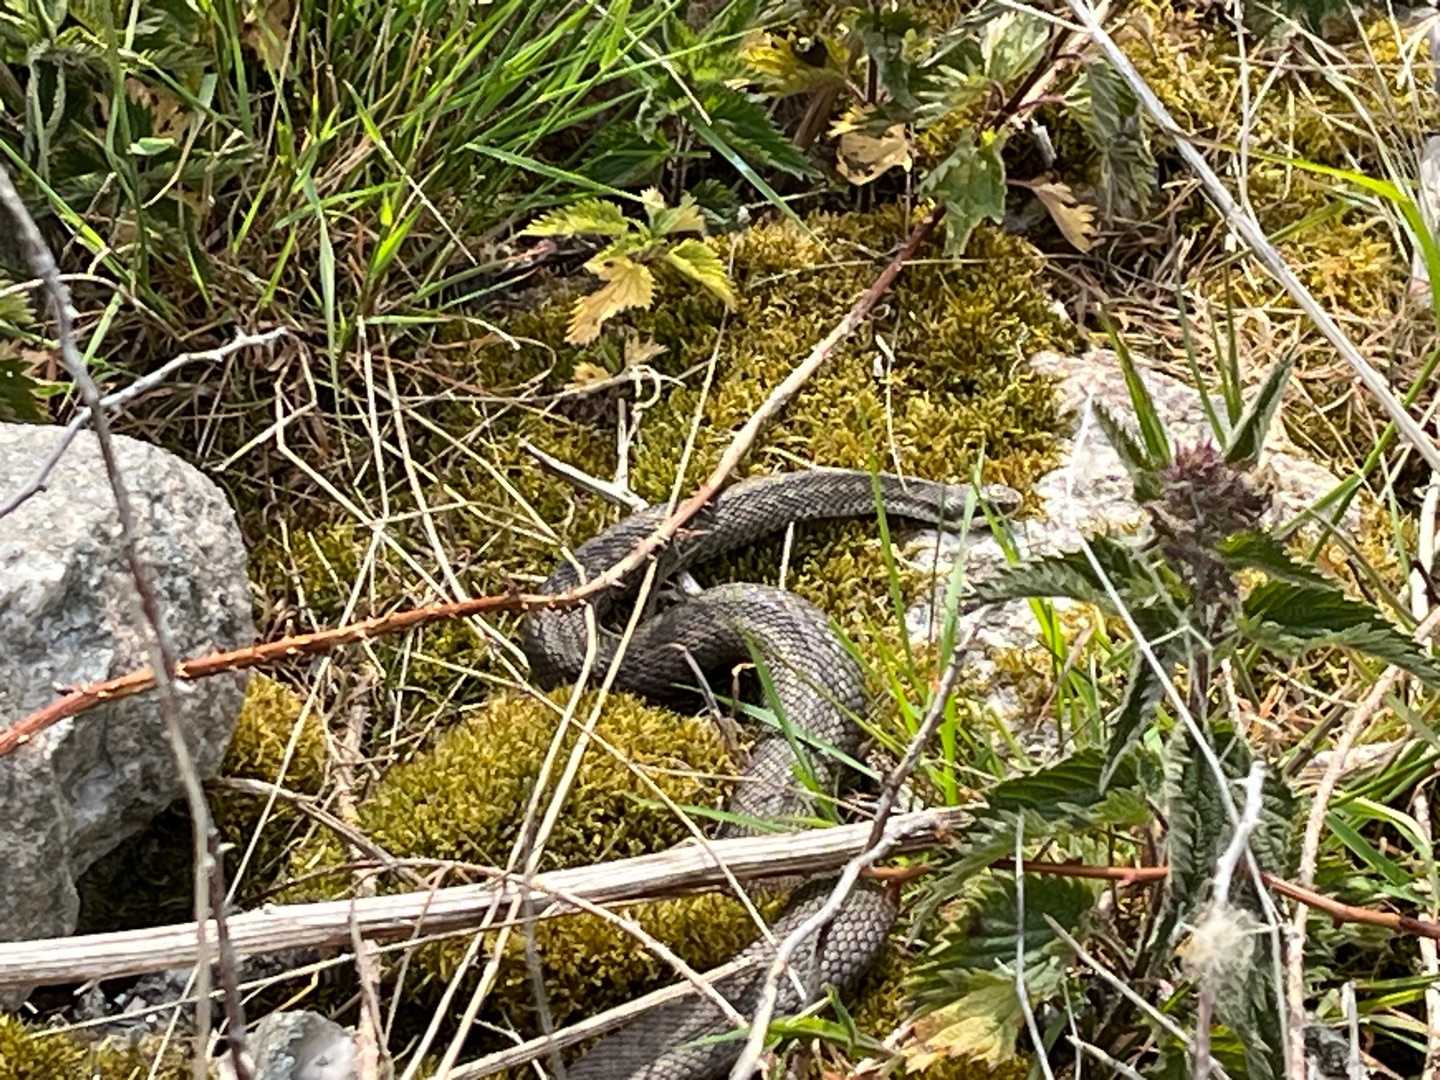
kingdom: Animalia
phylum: Chordata
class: Squamata
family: Viperidae
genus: Vipera
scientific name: Vipera berus
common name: Hugorm
